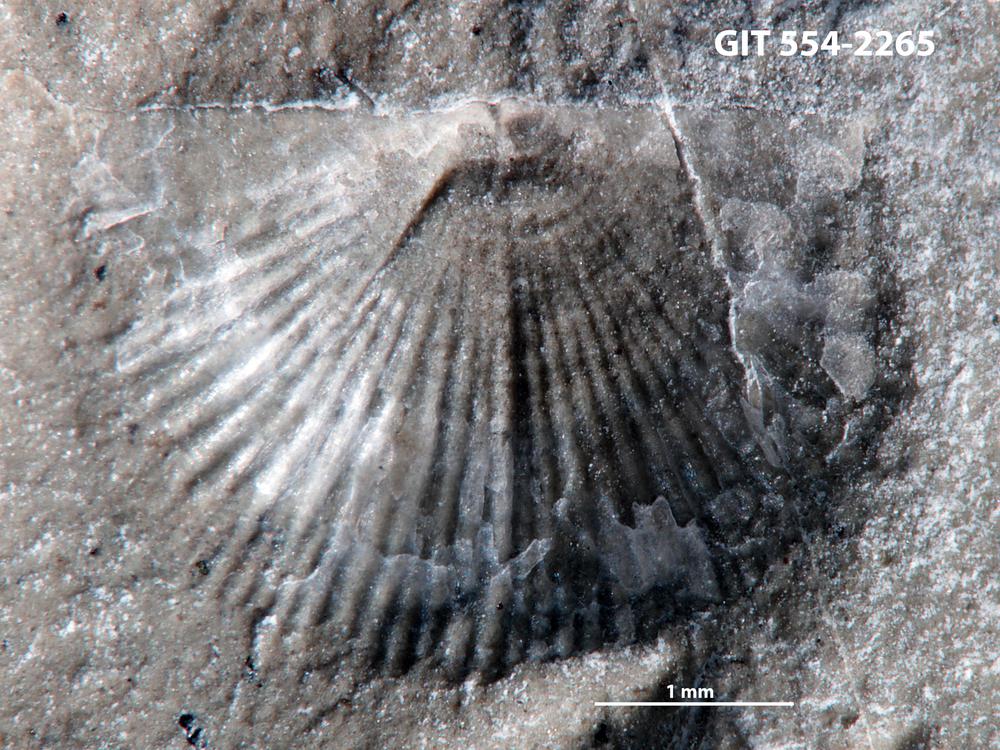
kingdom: Animalia
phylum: Brachiopoda
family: Chonetidae
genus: Strophochonetes
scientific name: Strophochonetes Chonetes cingulata
